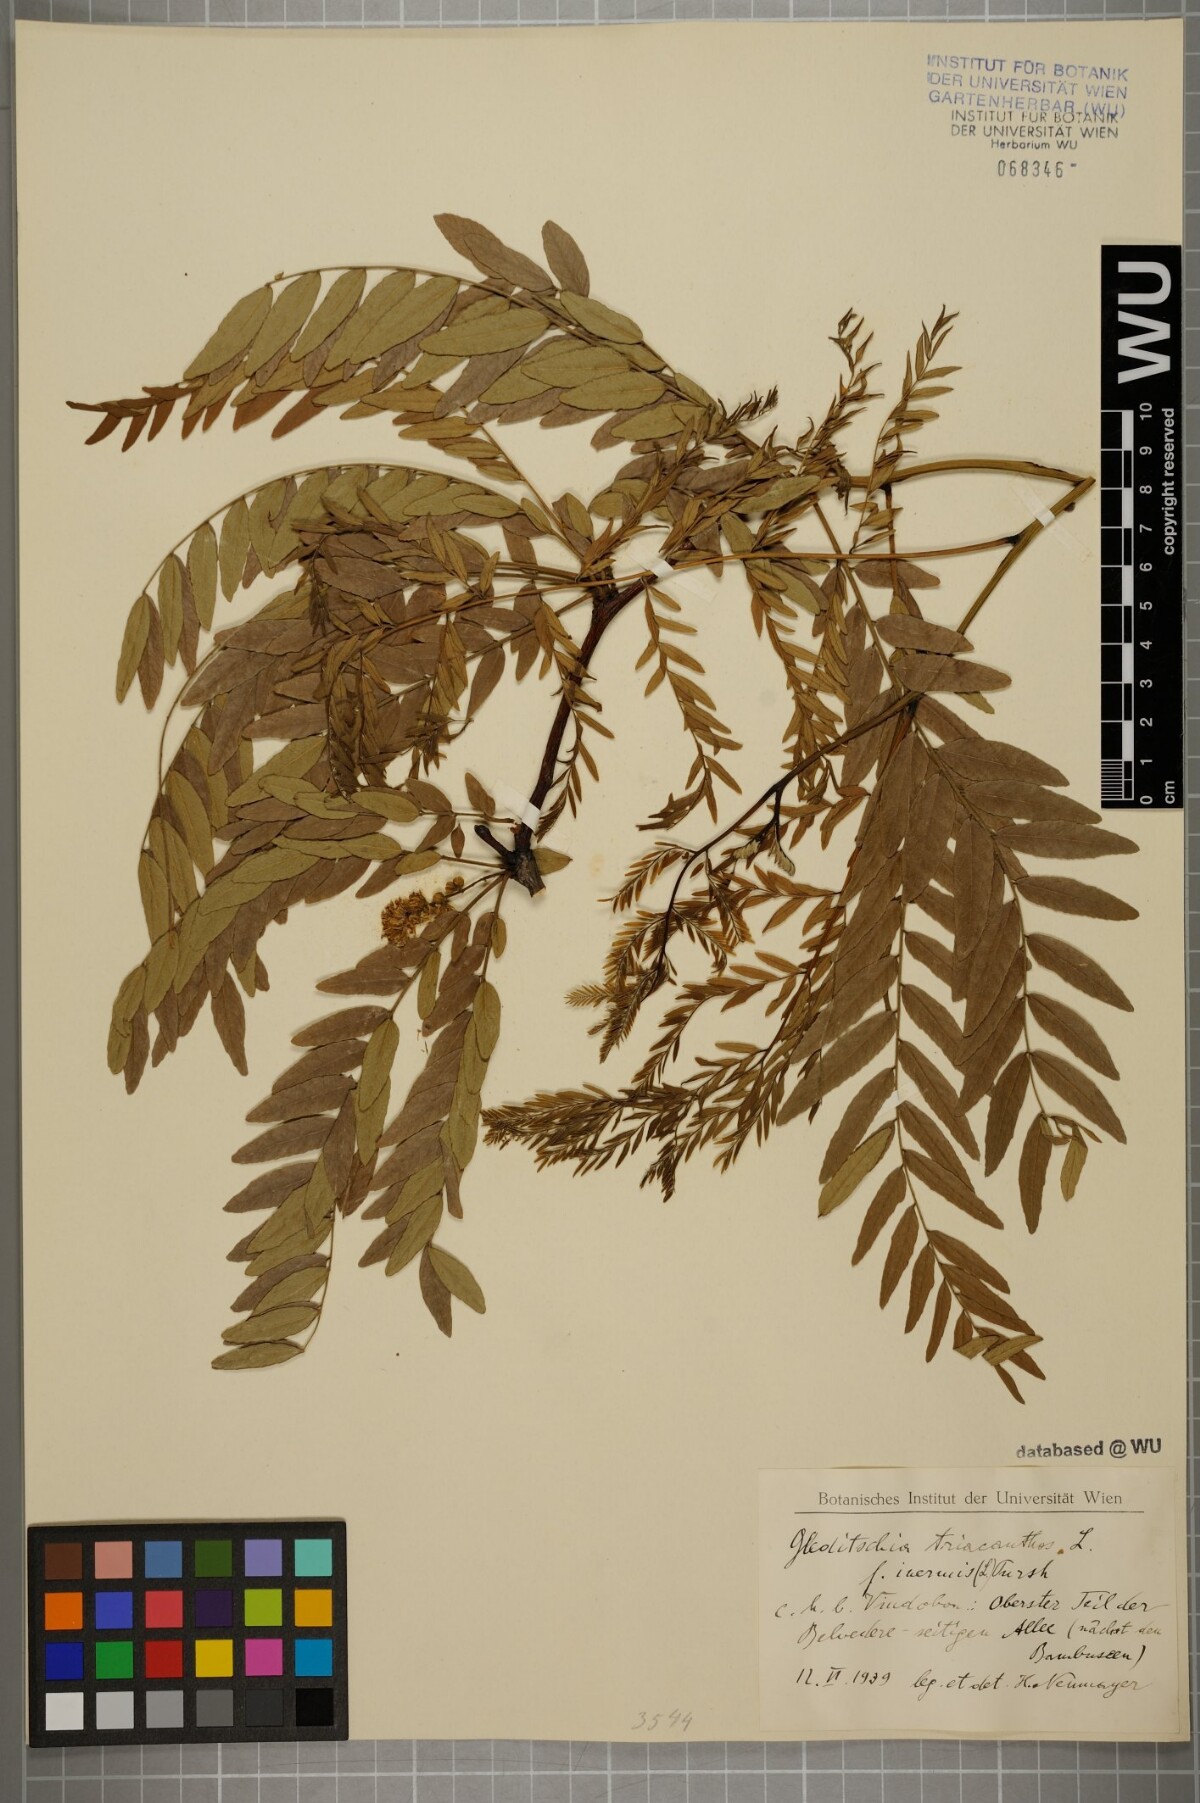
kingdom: Plantae
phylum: Tracheophyta
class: Magnoliopsida
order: Fabales
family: Fabaceae
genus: Gleditsia
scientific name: Gleditsia triacanthos
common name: Common honeylocust
